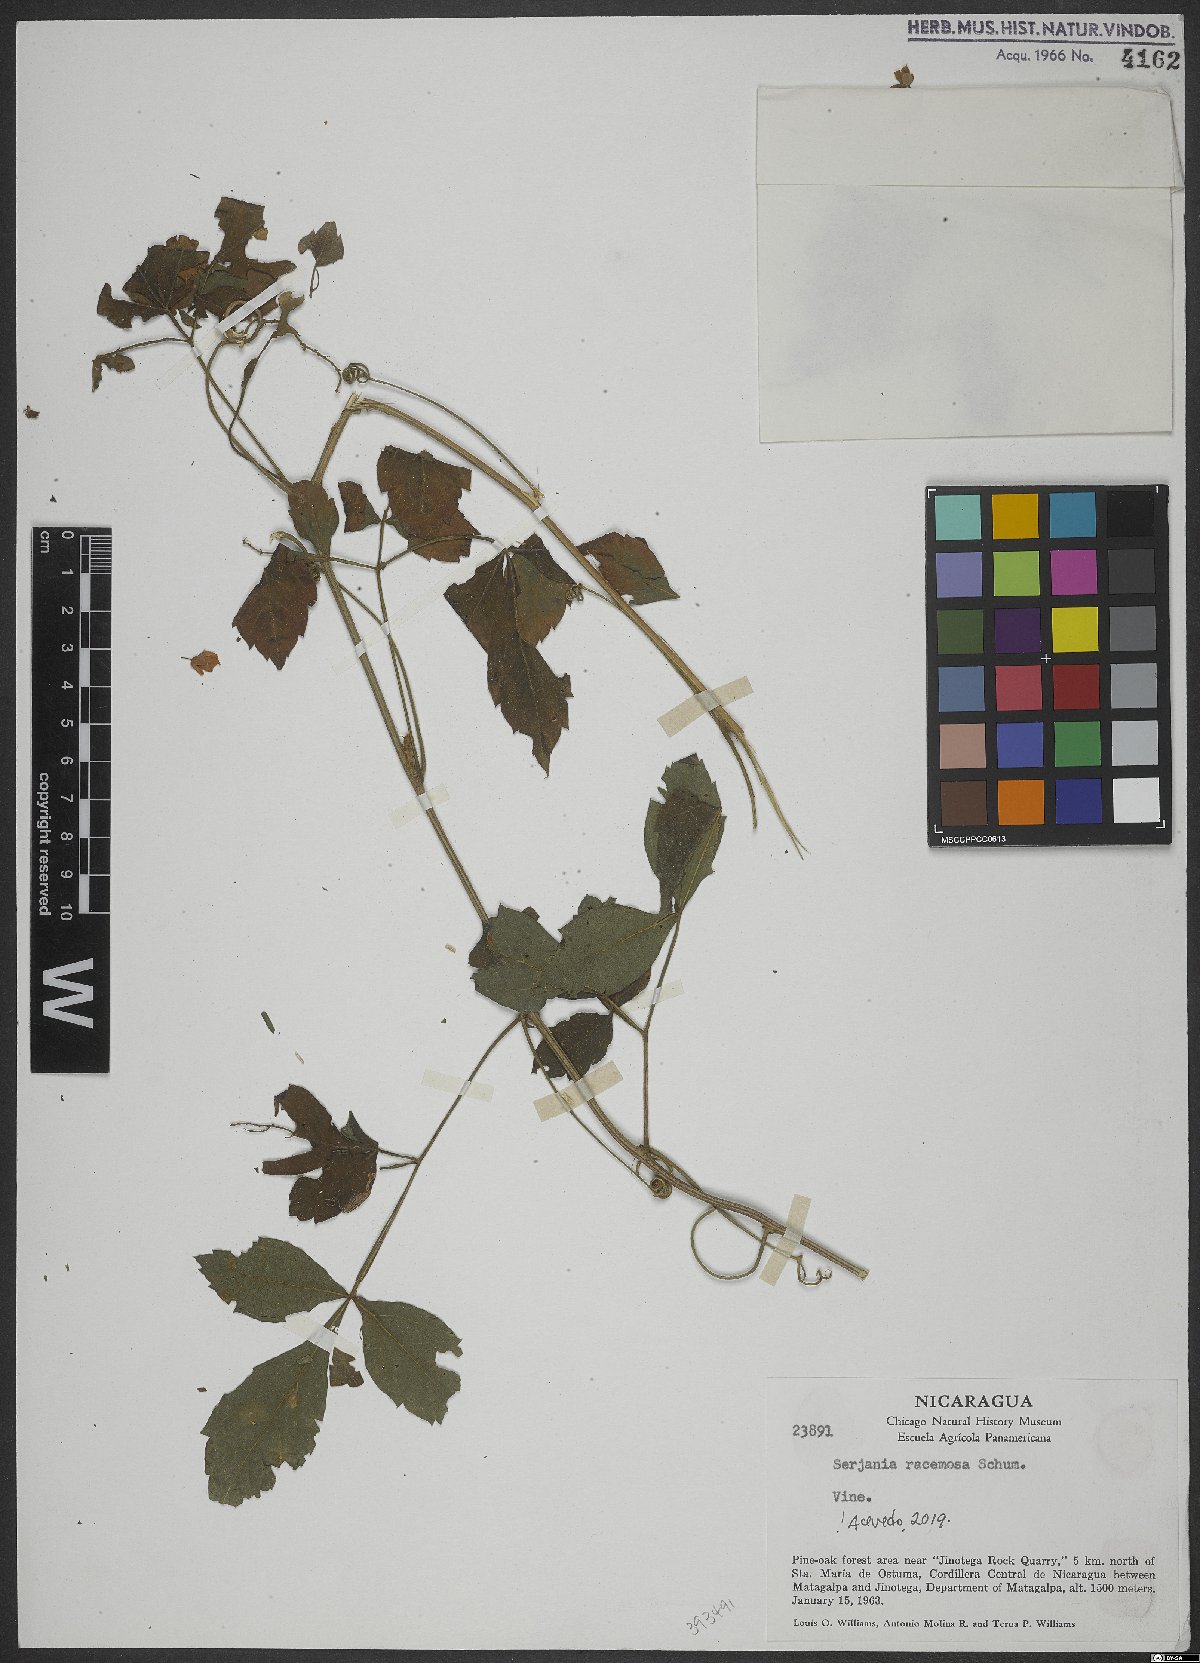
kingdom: Plantae
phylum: Tracheophyta
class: Magnoliopsida
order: Sapindales
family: Sapindaceae
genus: Serjania
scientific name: Serjania racemosa
